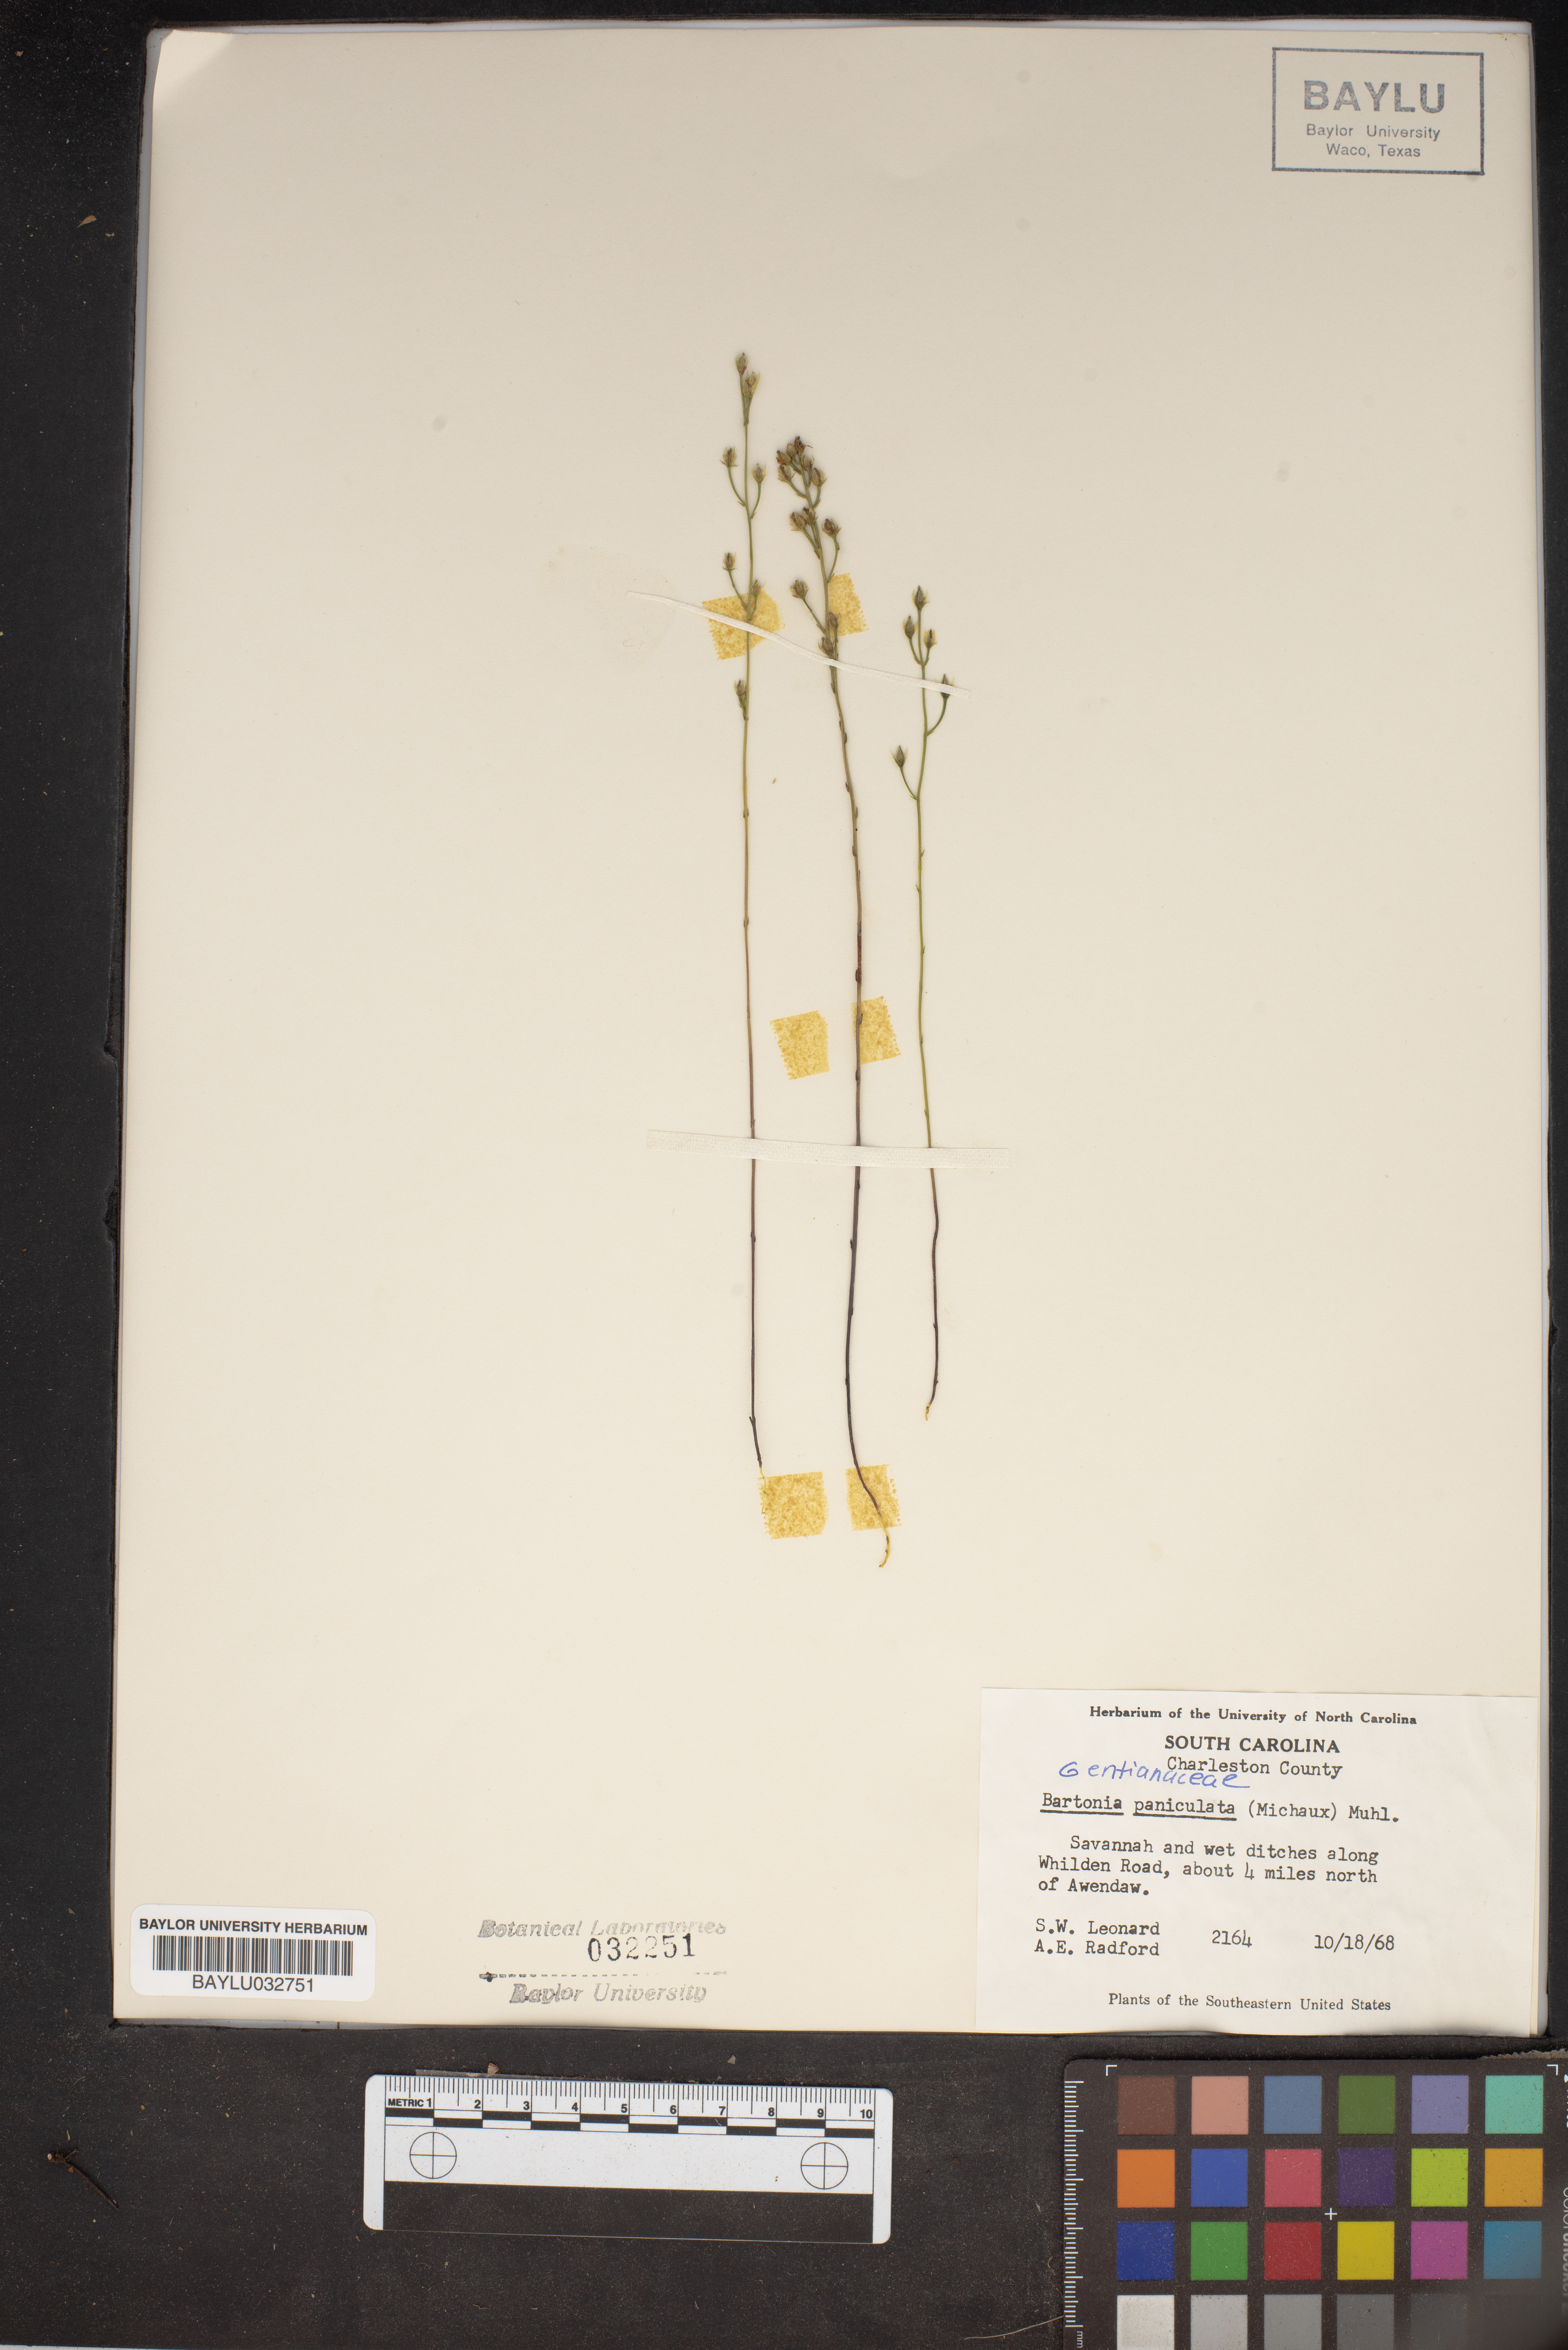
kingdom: Plantae
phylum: Tracheophyta
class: Magnoliopsida
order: Gentianales
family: Gentianaceae
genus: Bartonia
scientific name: Bartonia paniculata
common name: Branched bartonia
